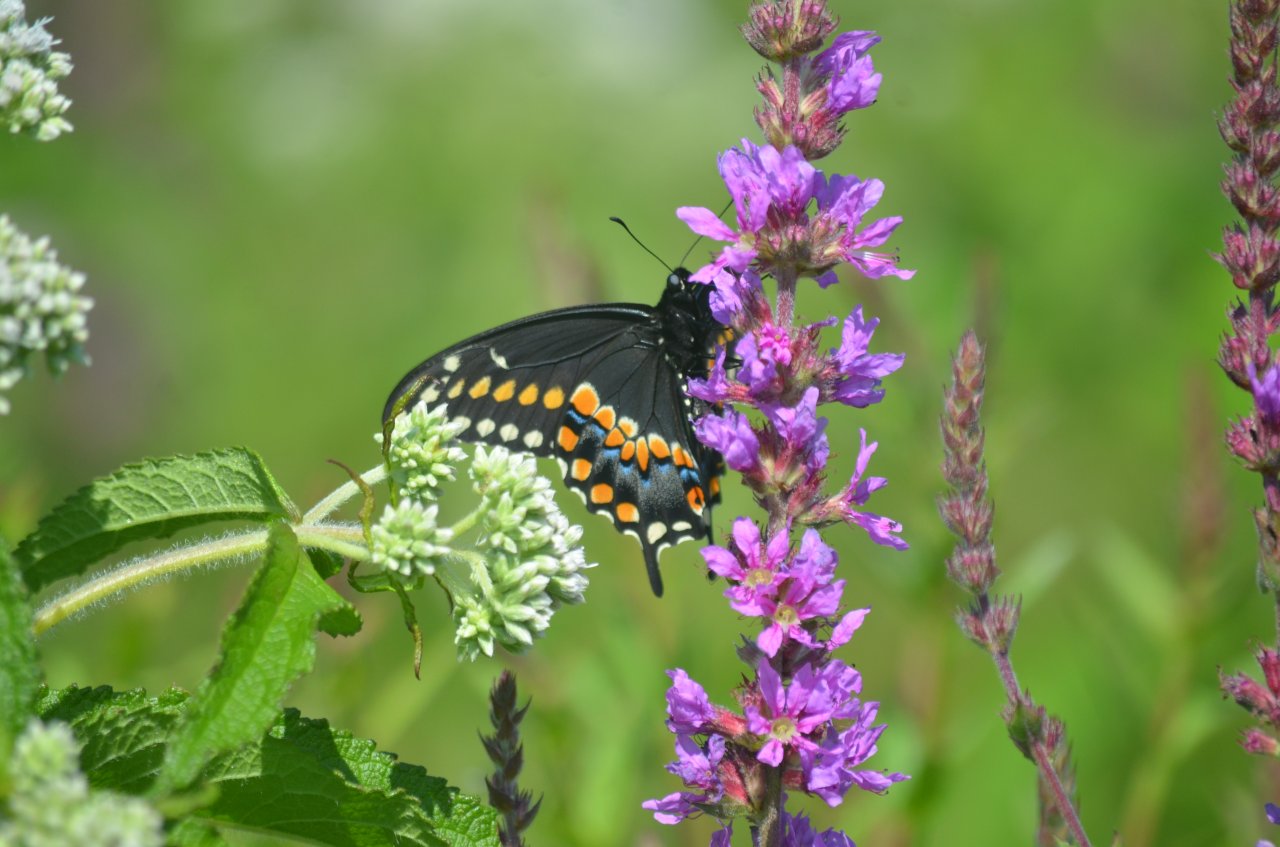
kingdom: Animalia
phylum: Arthropoda
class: Insecta
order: Lepidoptera
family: Papilionidae
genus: Papilio
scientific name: Papilio polyxenes
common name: Black Swallowtail
